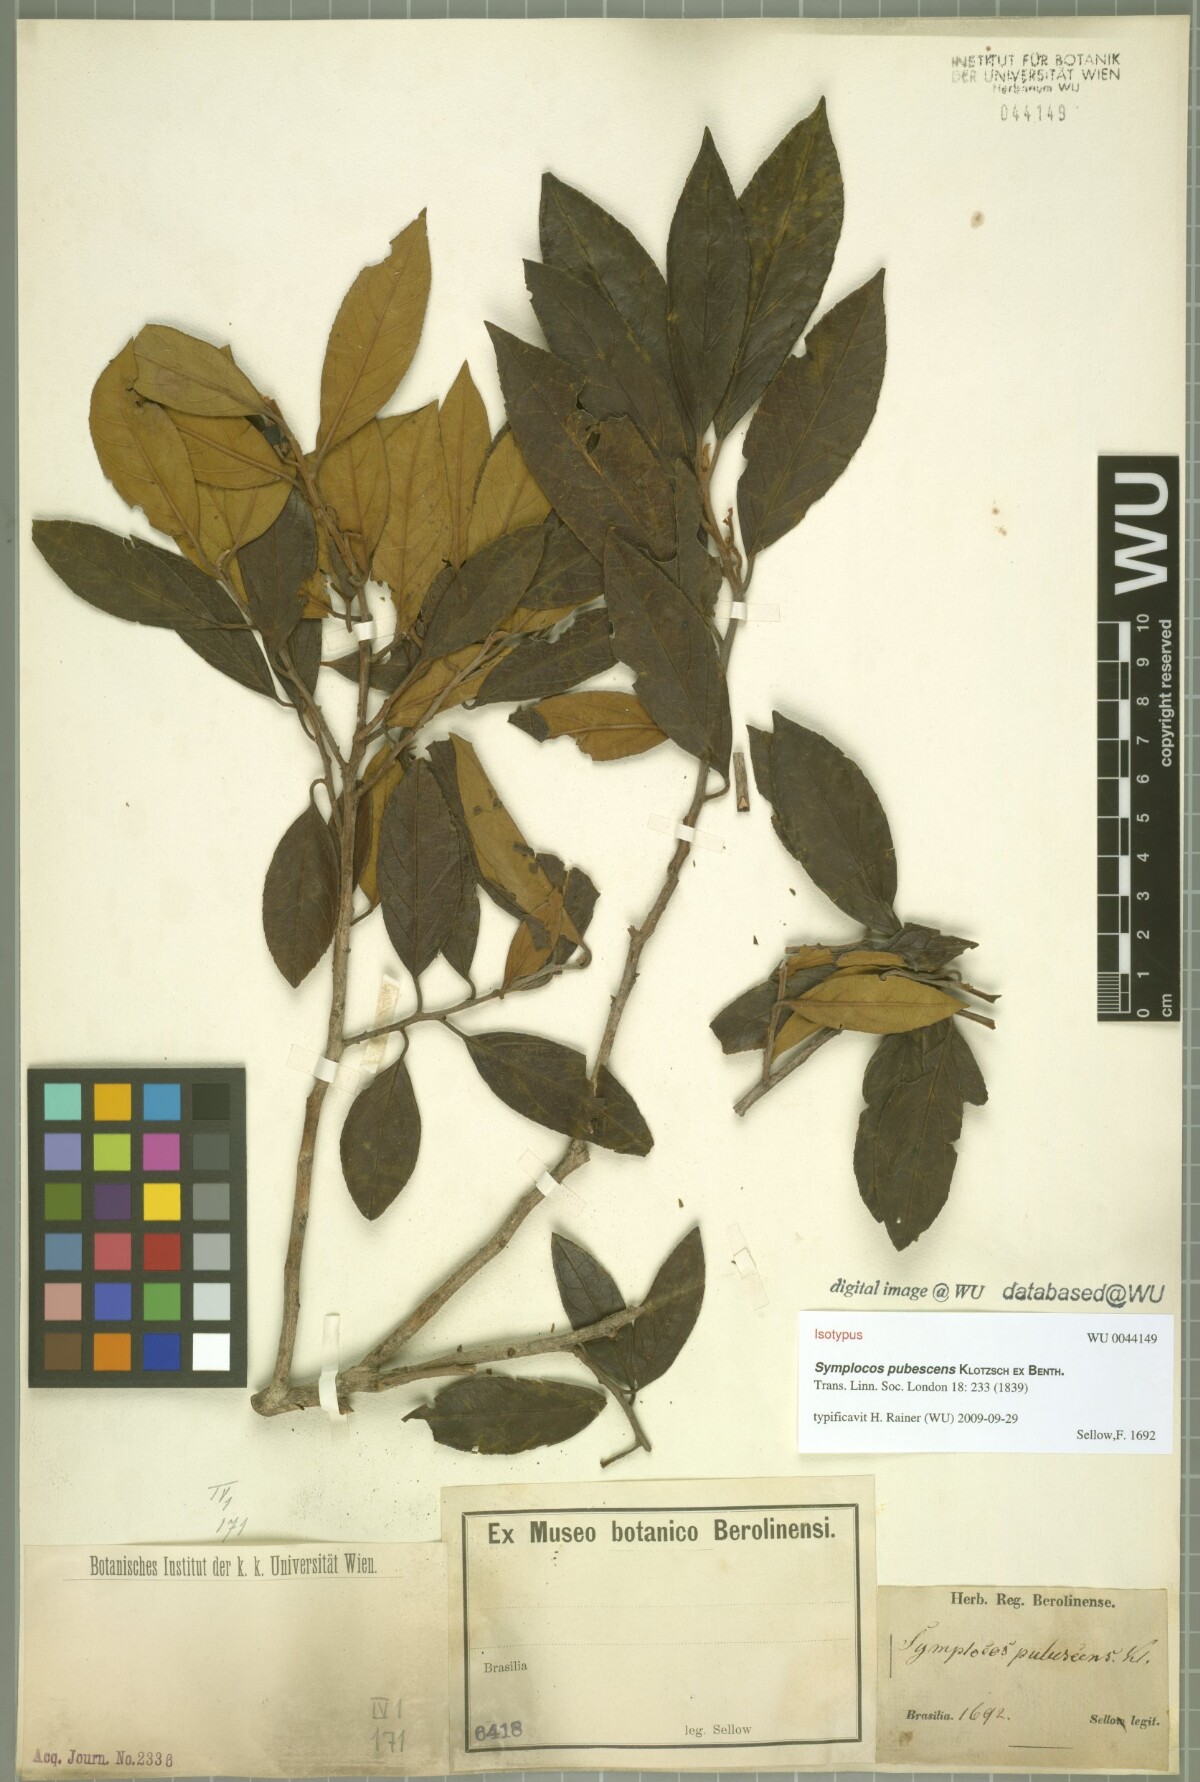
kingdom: Plantae
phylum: Tracheophyta
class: Magnoliopsida
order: Ericales
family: Symplocaceae
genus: Symplocos
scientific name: Symplocos pubescens
